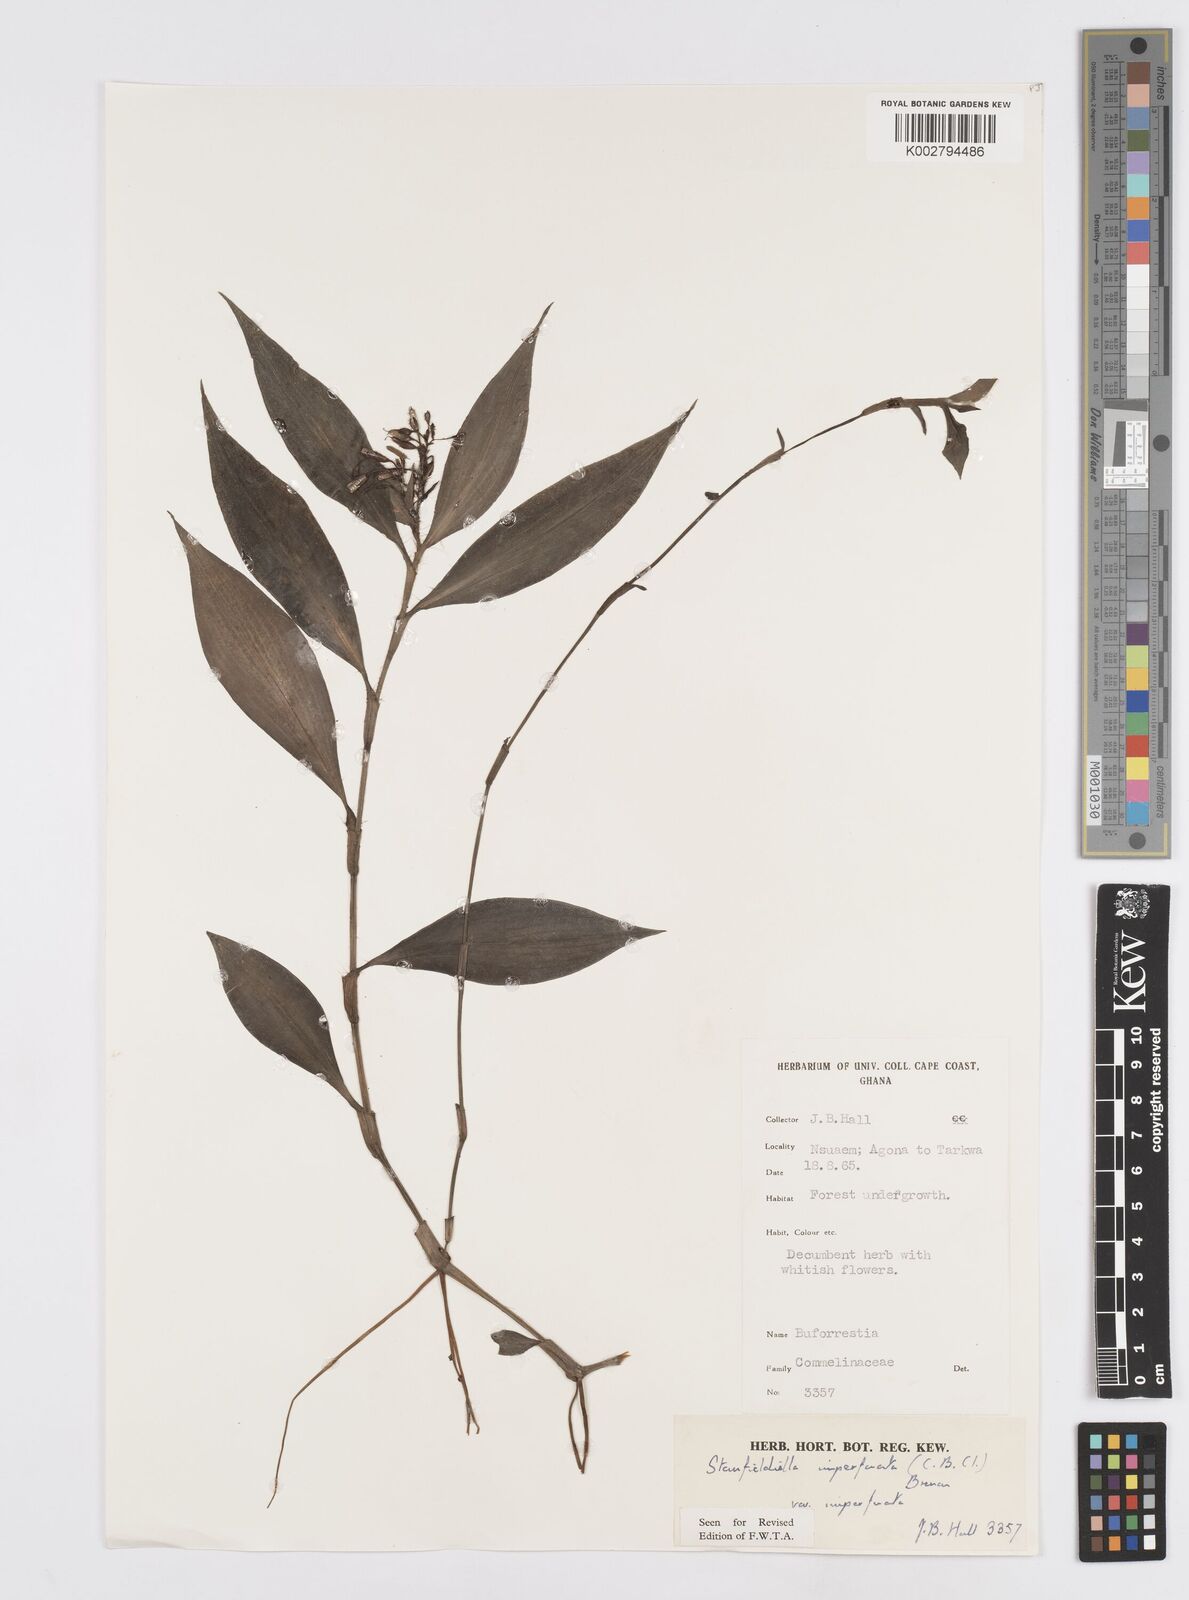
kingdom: Plantae
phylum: Tracheophyta
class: Liliopsida
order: Commelinales
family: Commelinaceae
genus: Stanfieldiella
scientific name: Stanfieldiella imperforata
